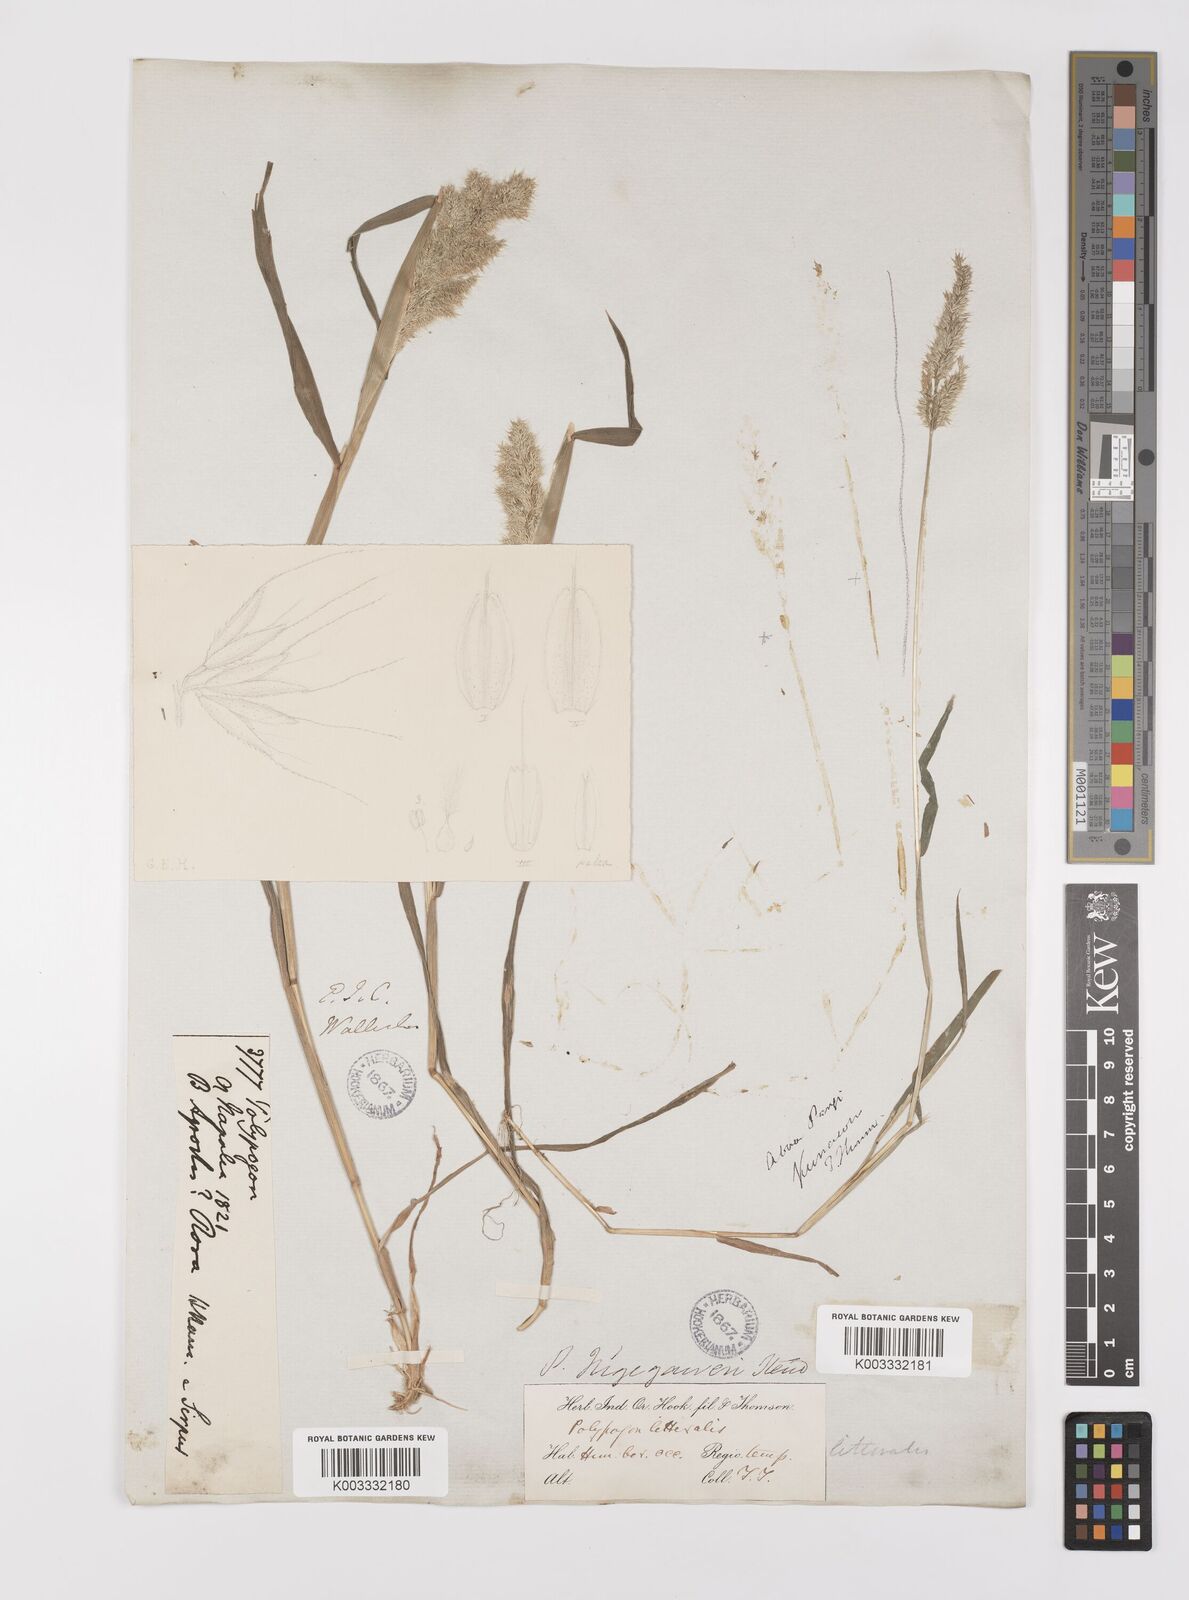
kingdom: Plantae
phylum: Tracheophyta
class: Liliopsida
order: Poales
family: Poaceae
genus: Polypogon
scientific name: Polypogon fugax
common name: Asia minor bluegrass
